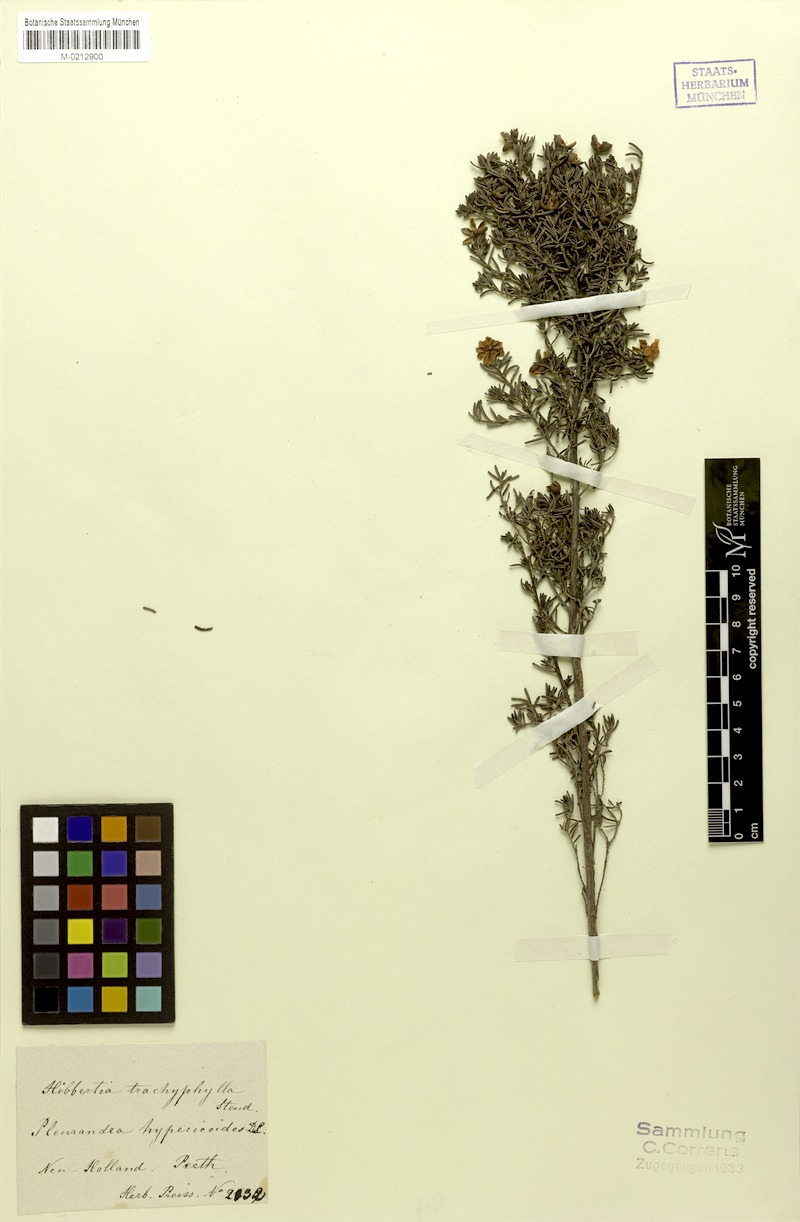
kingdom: Plantae
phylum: Tracheophyta
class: Magnoliopsida
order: Dilleniales
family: Dilleniaceae
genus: Hibbertia
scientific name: Hibbertia hypericoides
